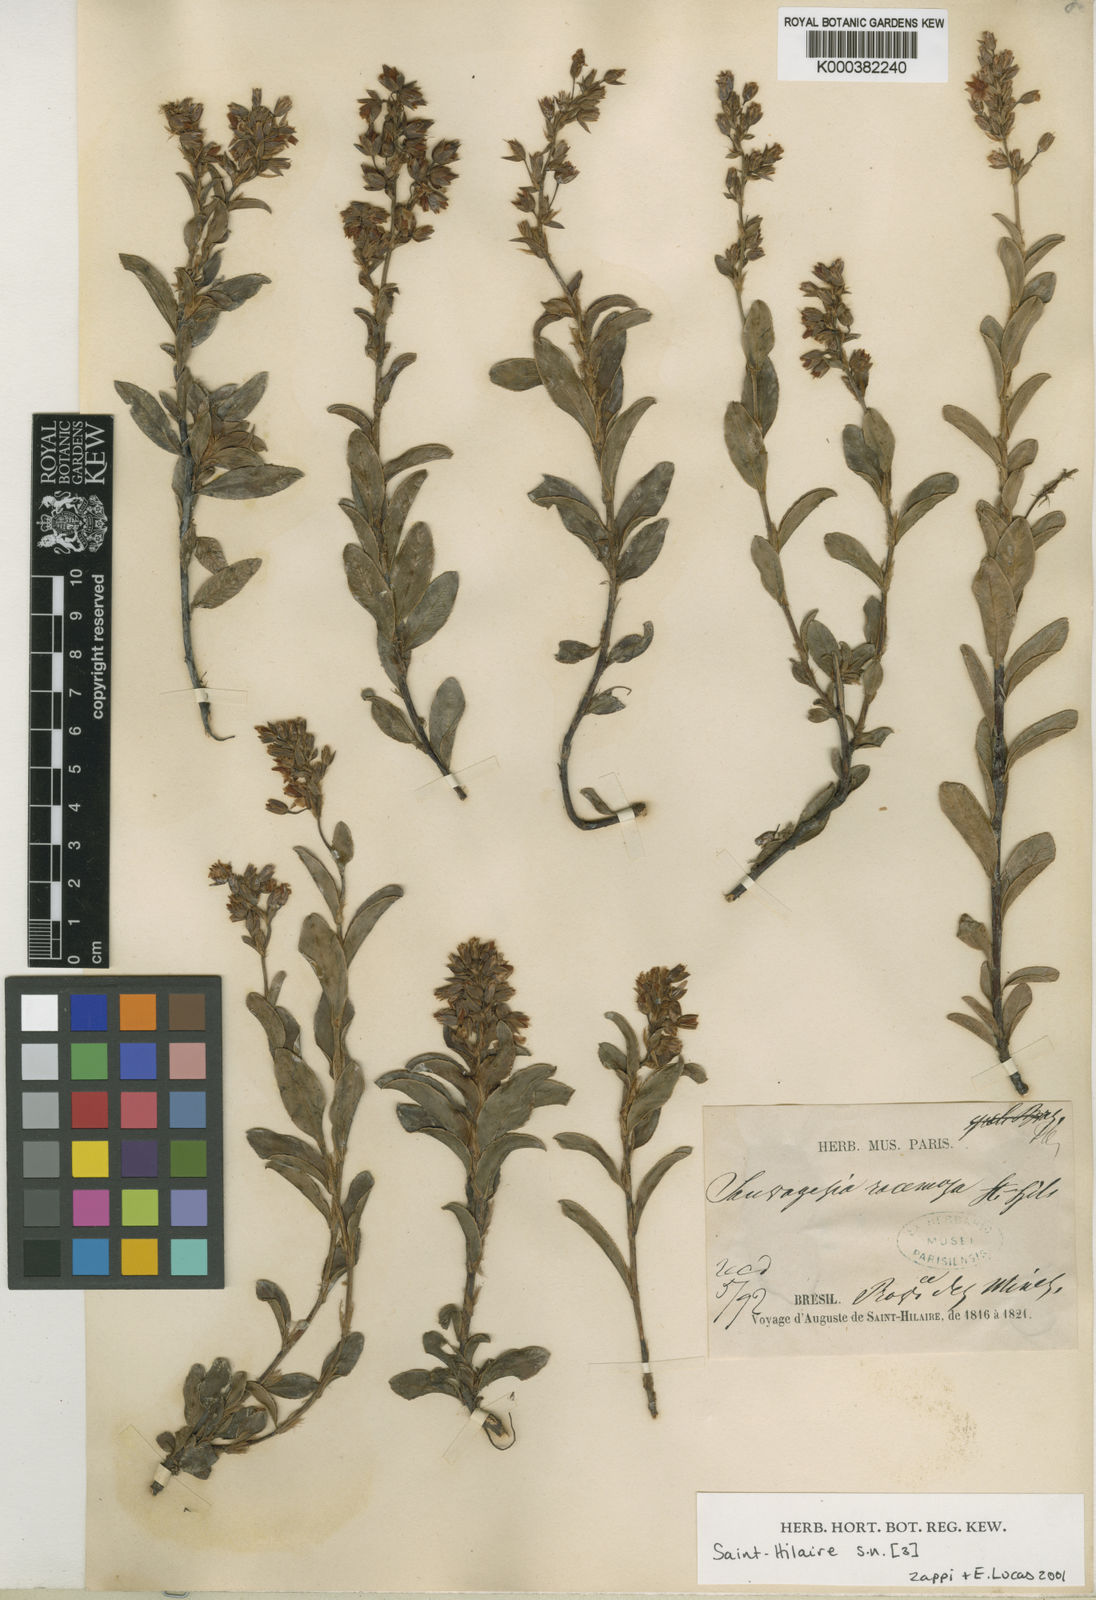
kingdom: Plantae
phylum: Tracheophyta
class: Magnoliopsida
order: Malpighiales
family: Ochnaceae
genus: Sauvagesia
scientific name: Sauvagesia racemosa
